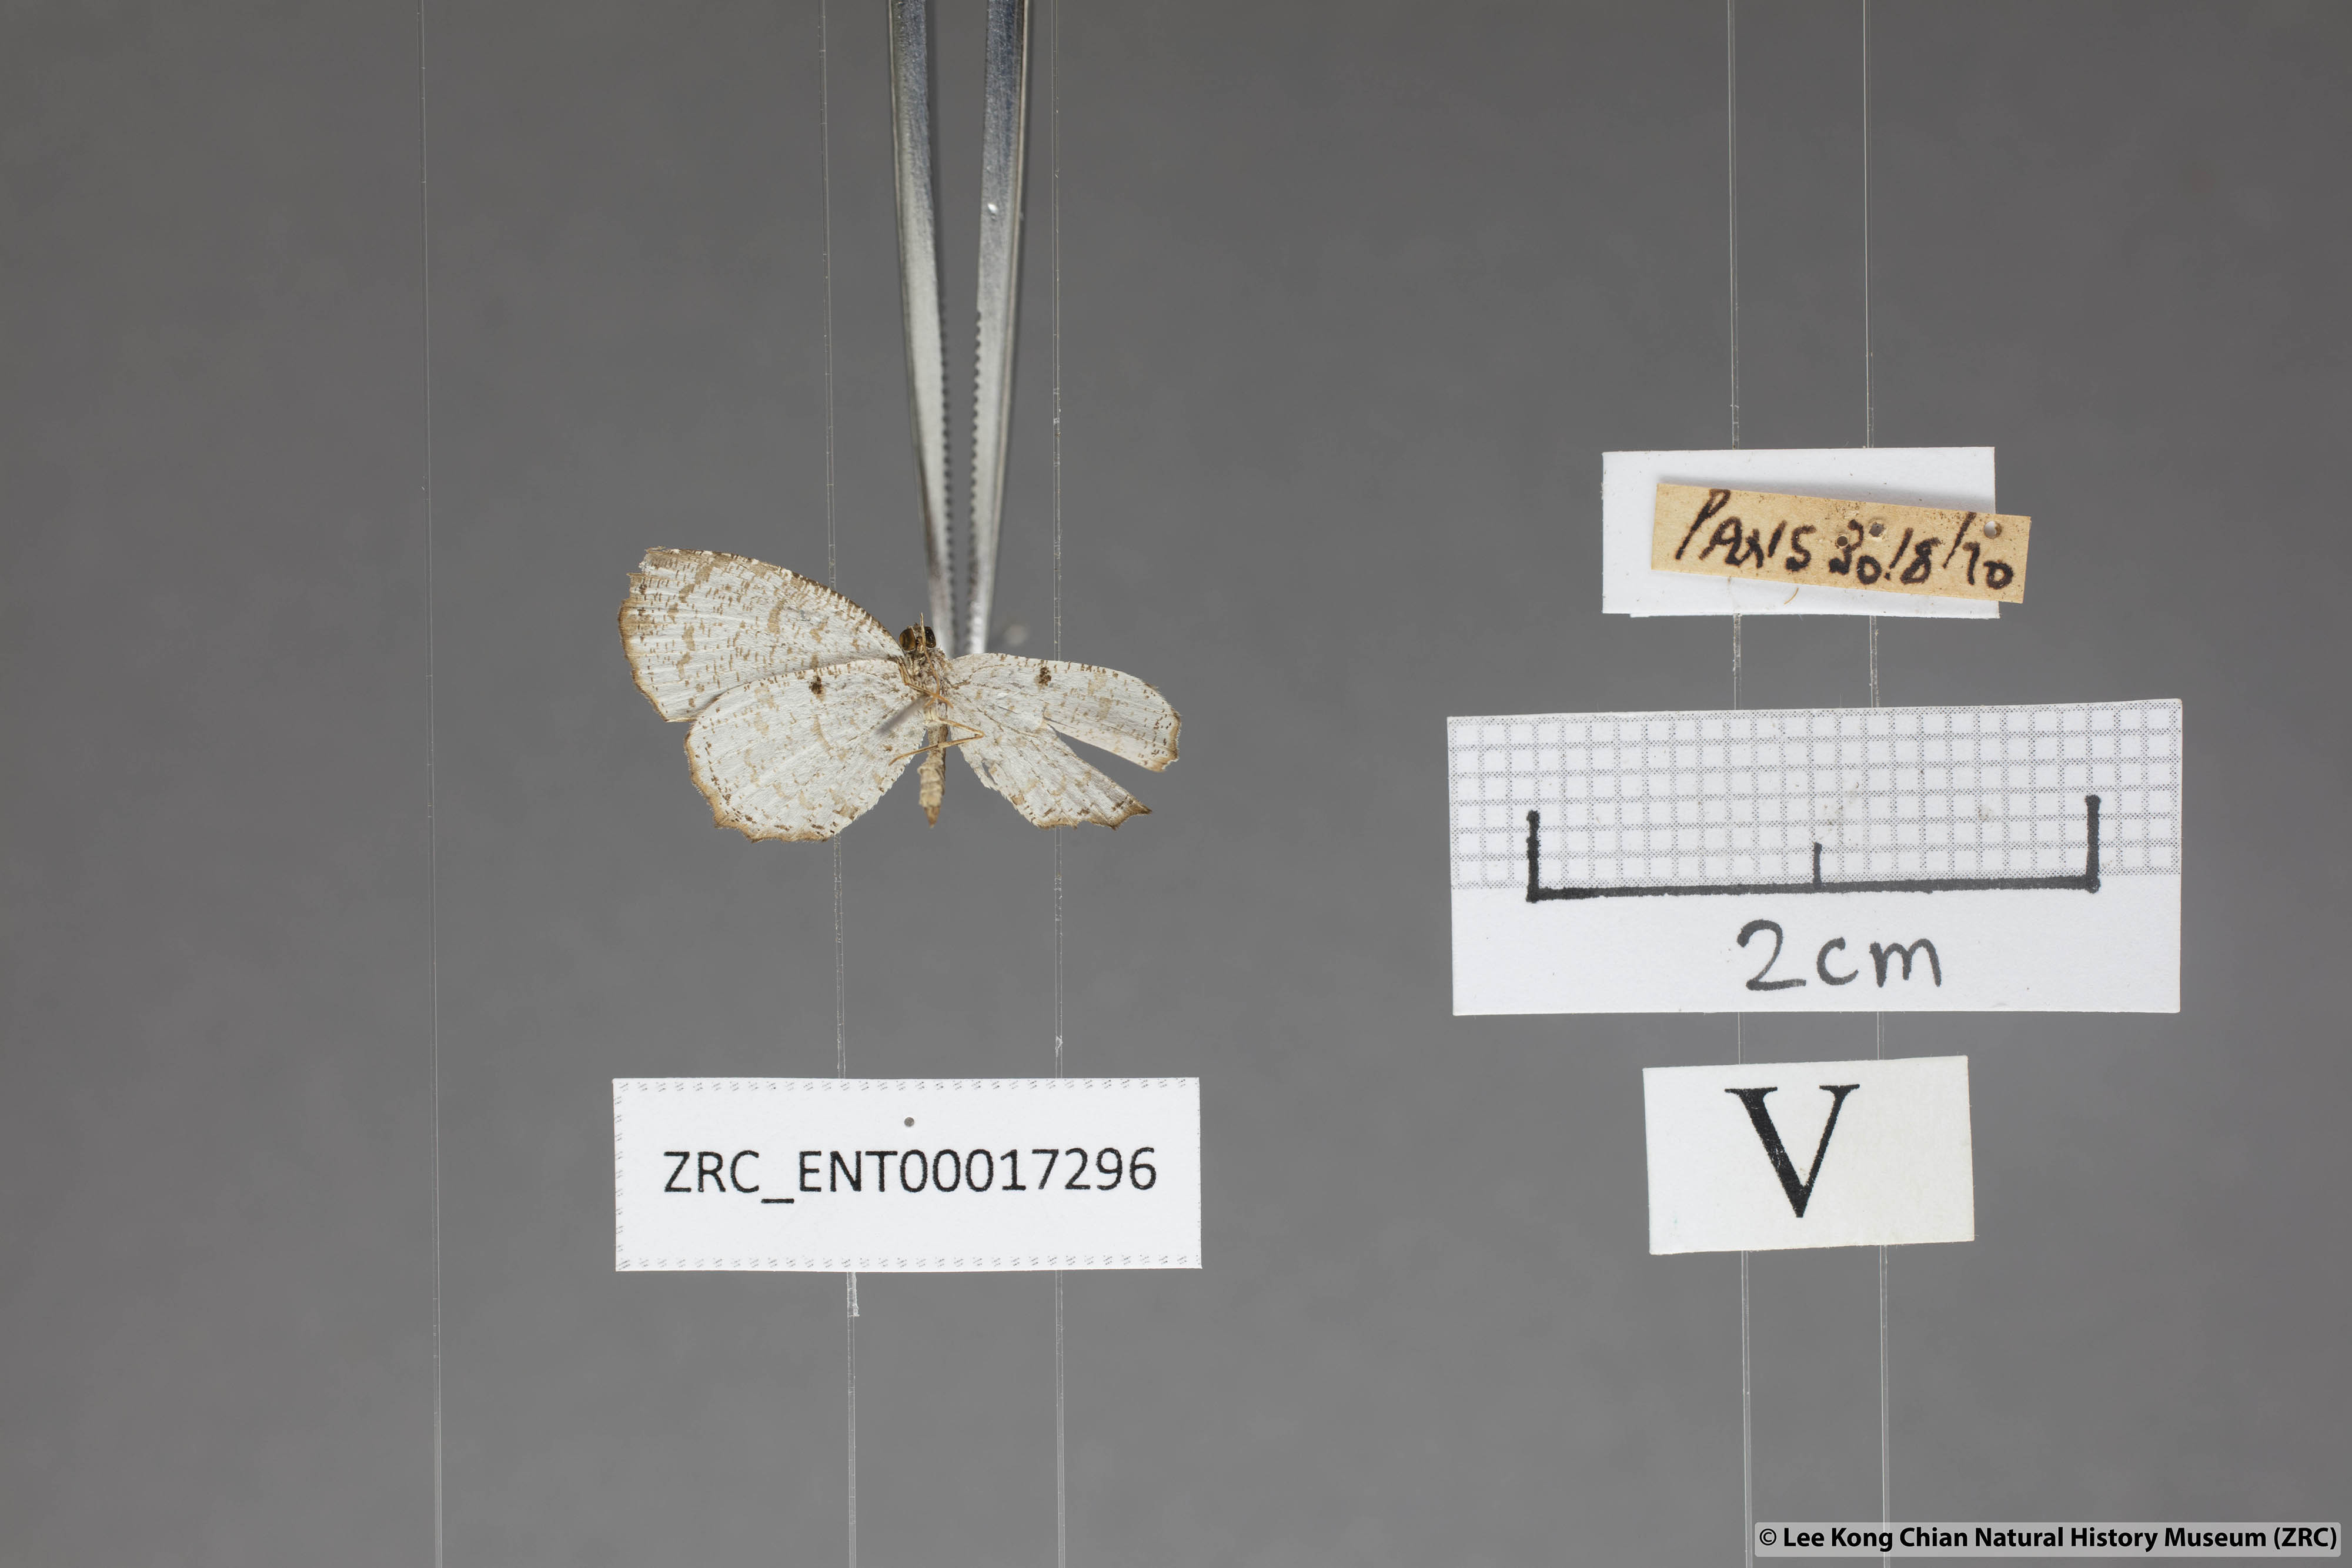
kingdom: Animalia
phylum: Arthropoda
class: Insecta
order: Lepidoptera
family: Lycaenidae
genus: Allotinus
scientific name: Allotinus substrigosa
